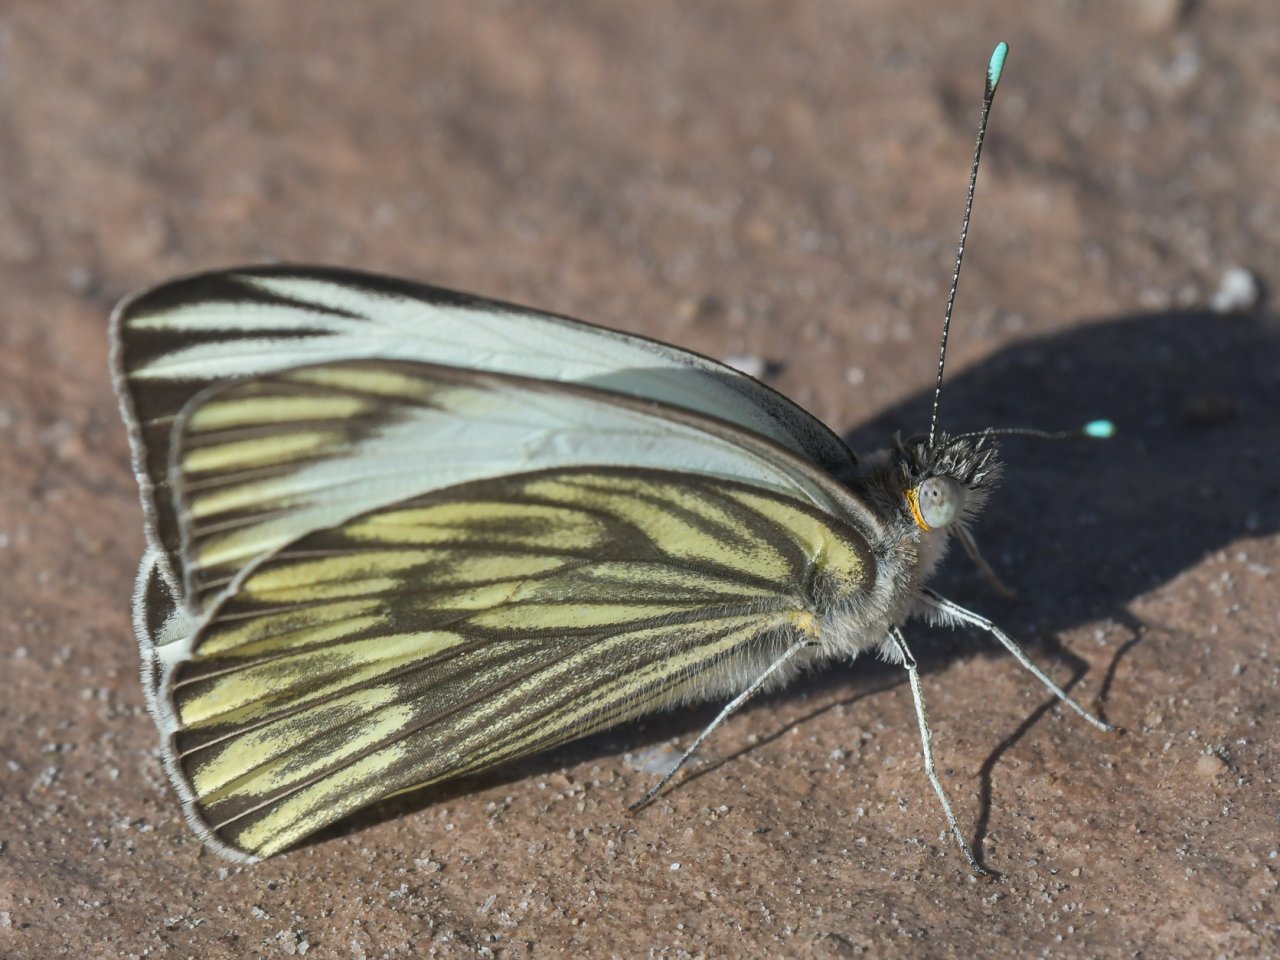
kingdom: Animalia
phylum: Arthropoda
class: Insecta
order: Lepidoptera
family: Pieridae
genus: Ascia
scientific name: Ascia monuste
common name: Great Southern White
